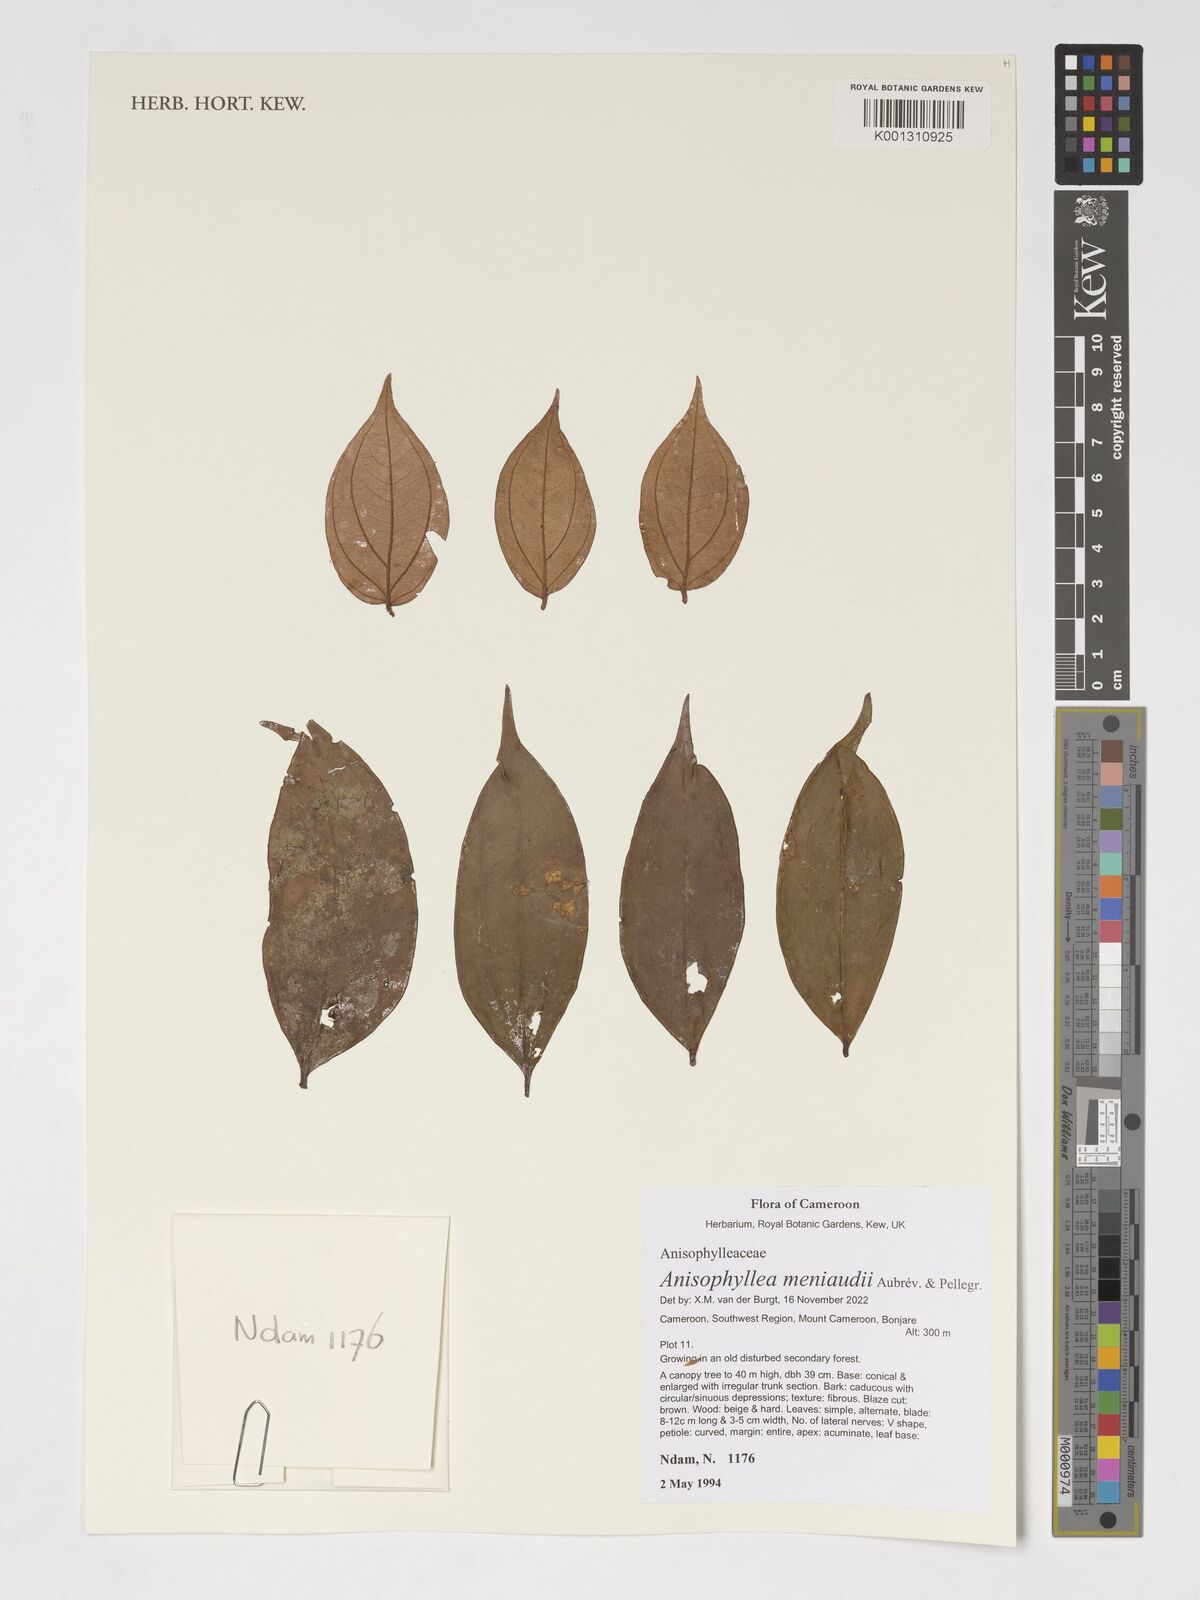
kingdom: Plantae
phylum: Tracheophyta
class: Magnoliopsida
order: Cucurbitales
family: Anisophylleaceae
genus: Anisophyllea
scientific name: Anisophyllea meniaudii
